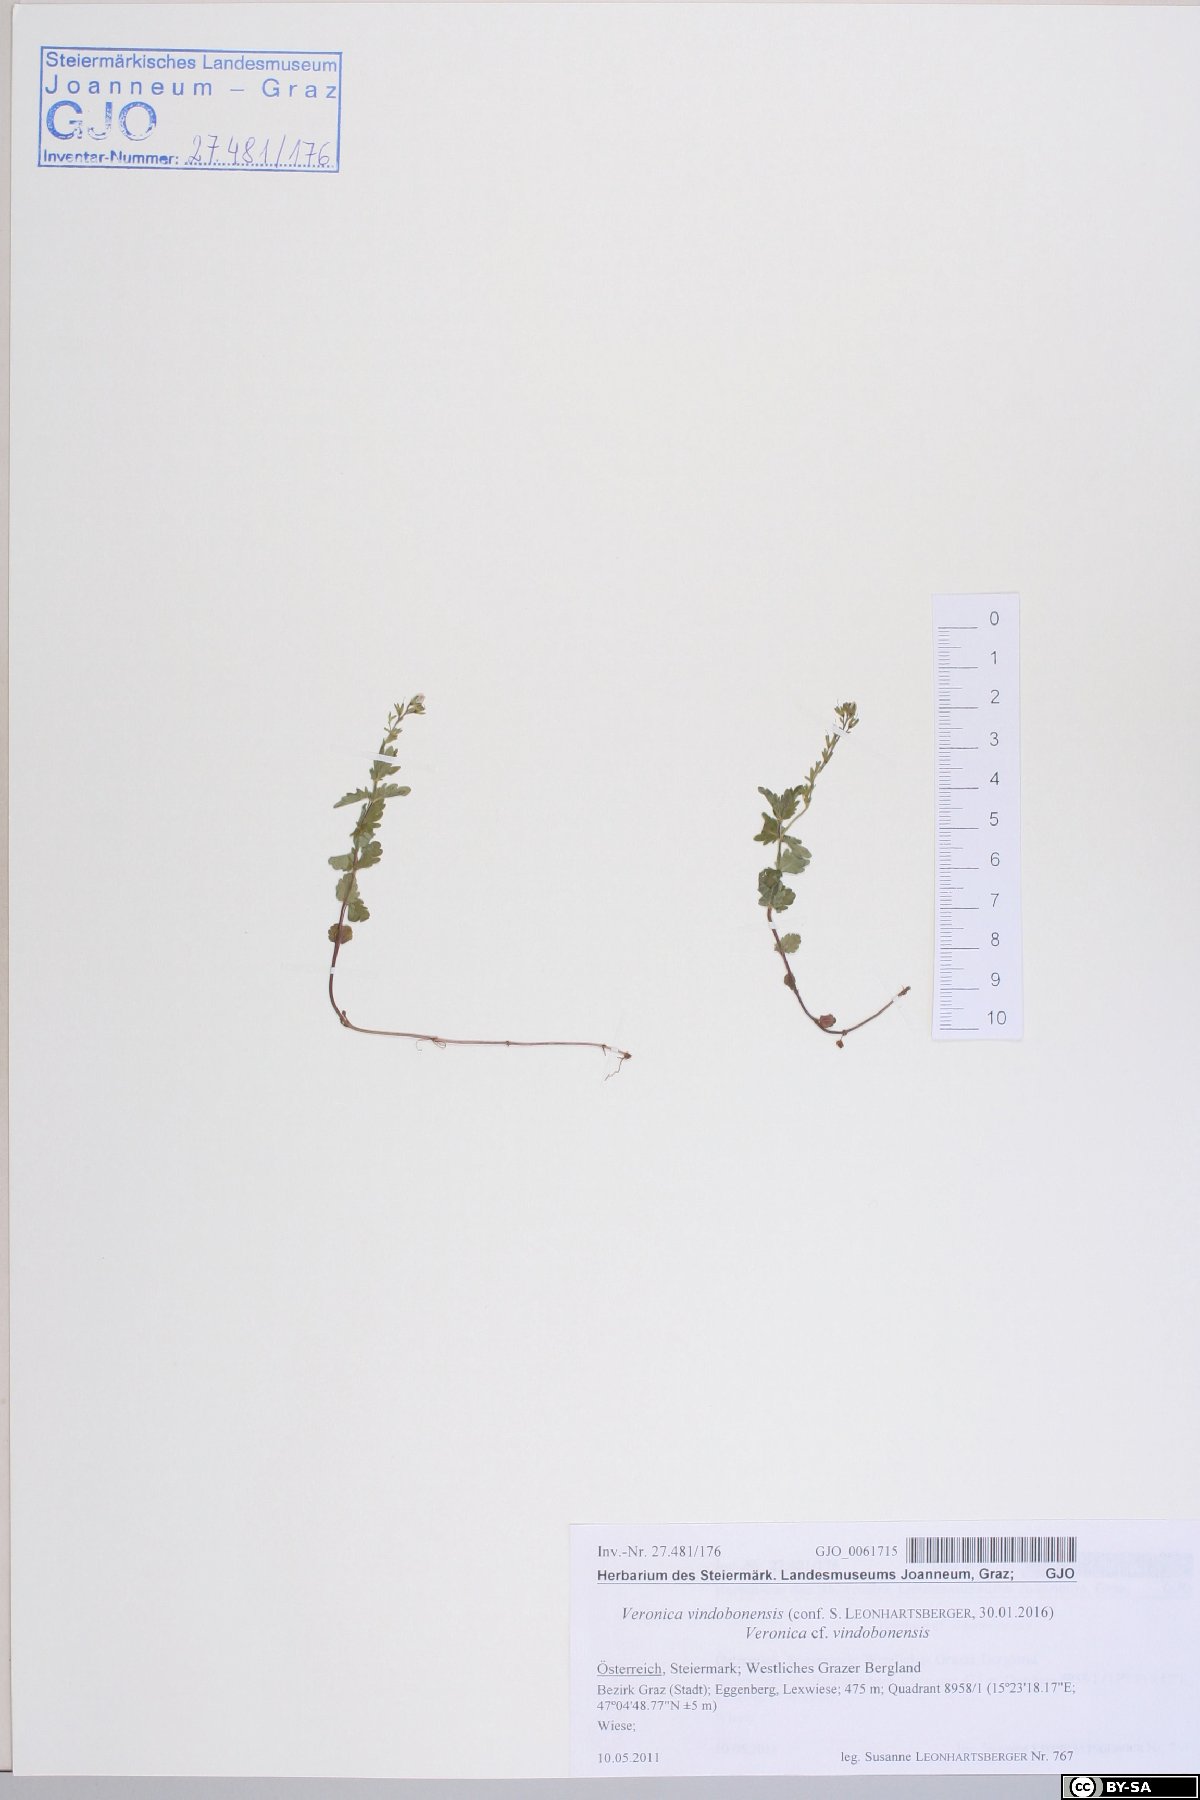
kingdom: Plantae
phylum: Tracheophyta
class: Magnoliopsida
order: Lamiales
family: Plantaginaceae
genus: Veronica
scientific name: Veronica vindobonensis
